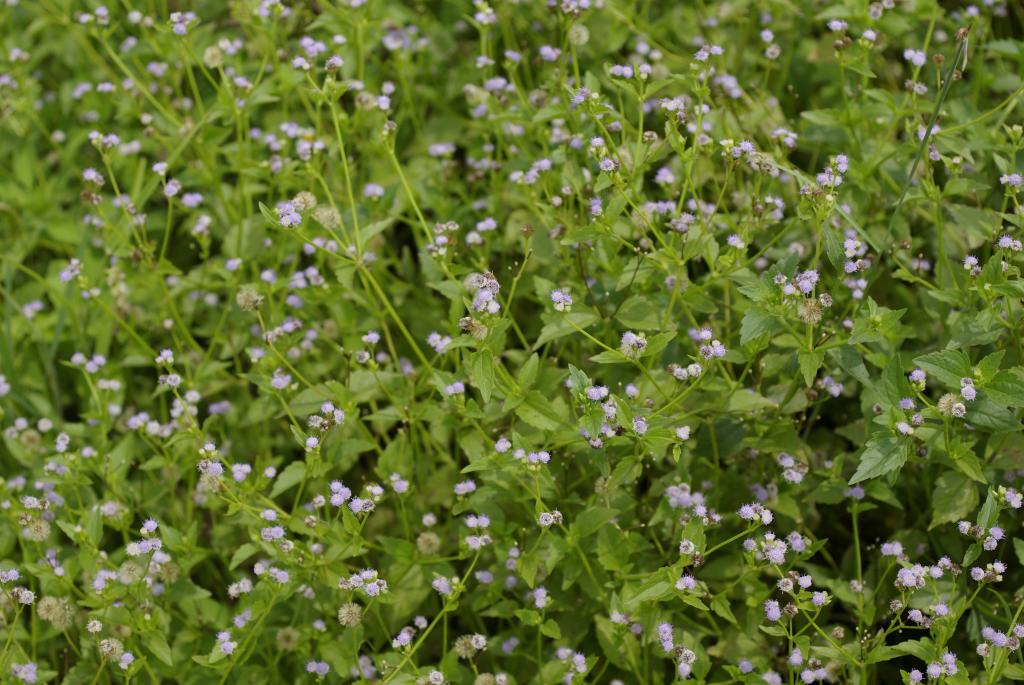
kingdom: Plantae
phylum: Tracheophyta
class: Magnoliopsida
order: Asterales
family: Asteraceae
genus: Praxelis
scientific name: Praxelis clematidea
